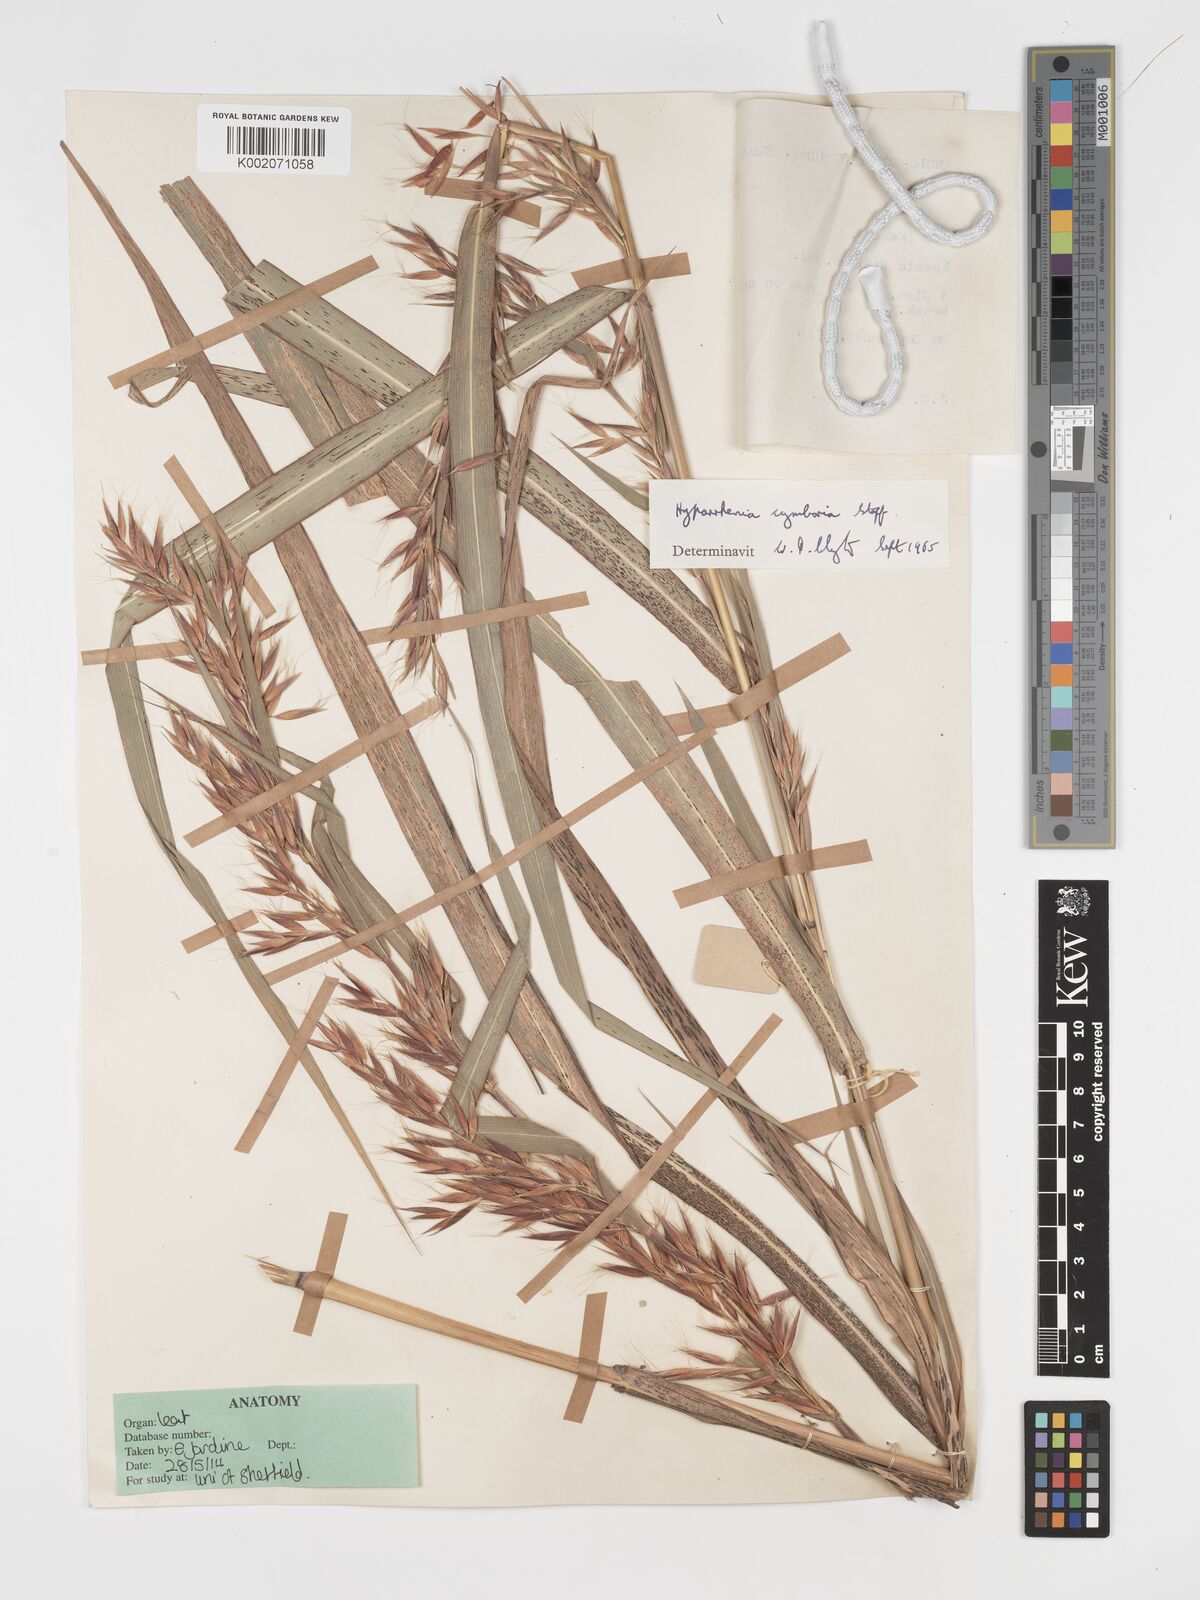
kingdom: Plantae
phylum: Tracheophyta
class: Liliopsida
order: Poales
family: Poaceae
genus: Hyparrhenia
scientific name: Hyparrhenia cymbaria
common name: Boat thatching grass
